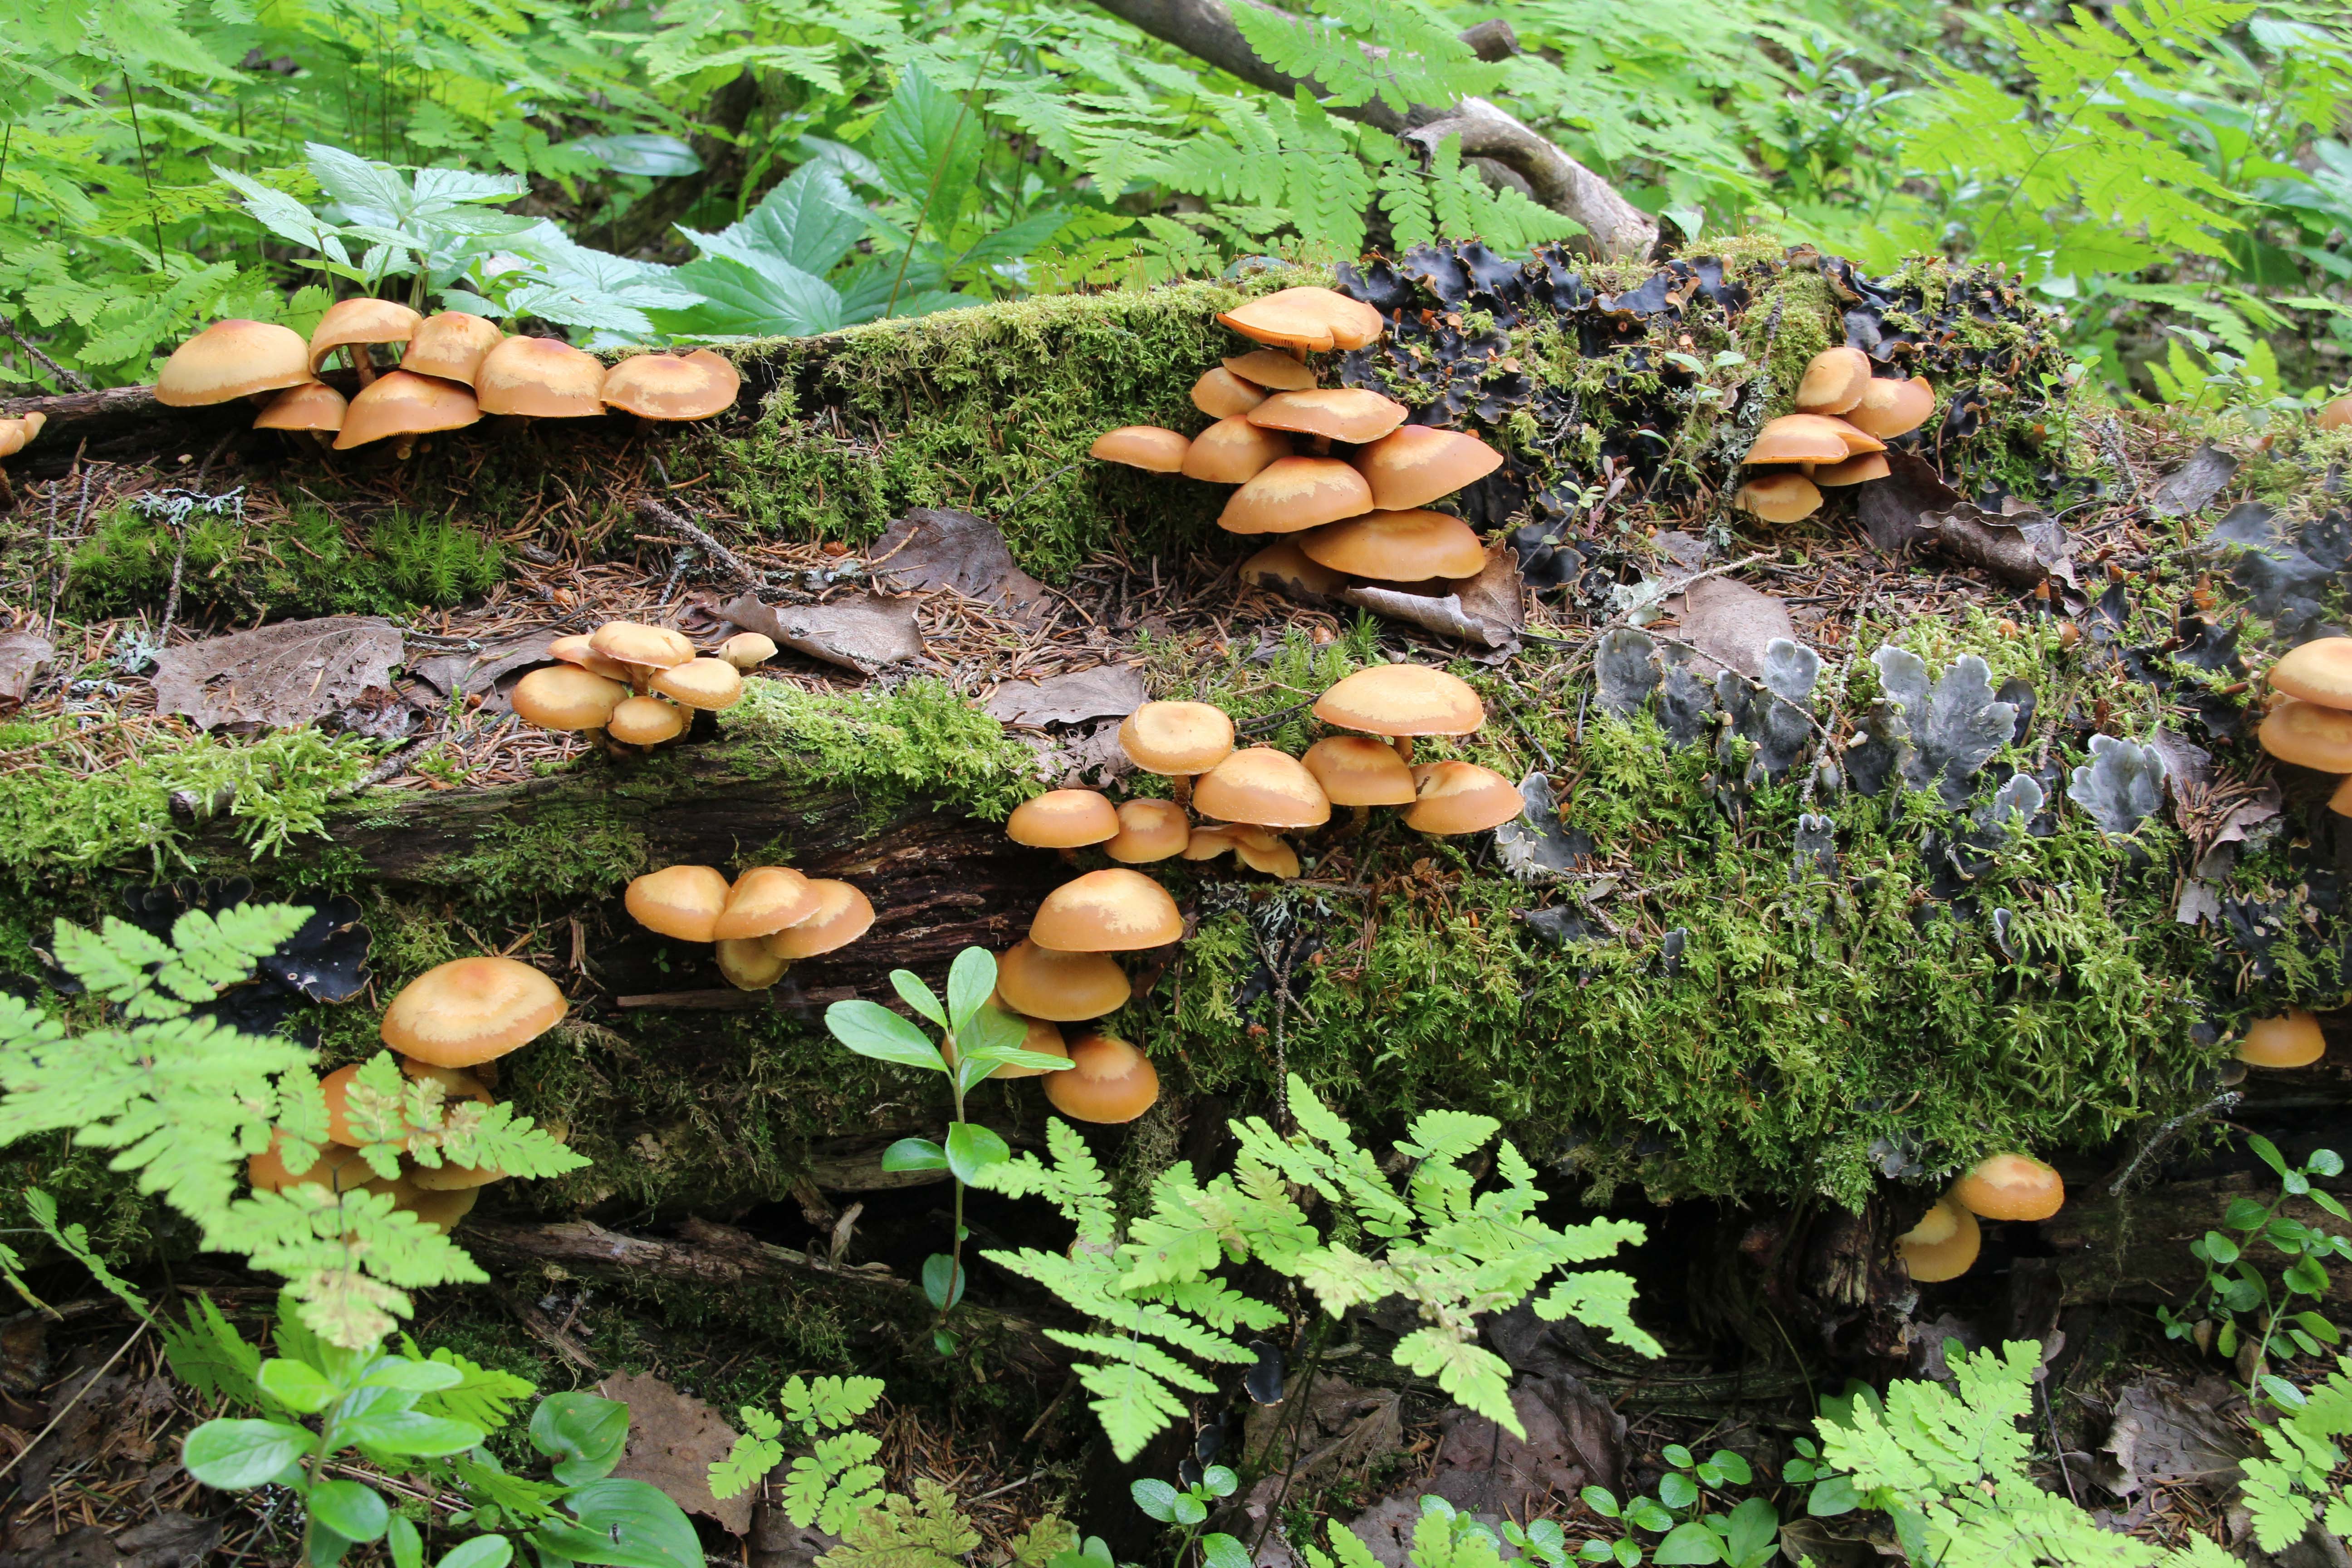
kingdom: Fungi
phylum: Basidiomycota
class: Agaricomycetes
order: Agaricales
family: Strophariaceae
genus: Kuehneromyces
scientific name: Kuehneromyces mutabilis
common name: Sheathed woodtuft
